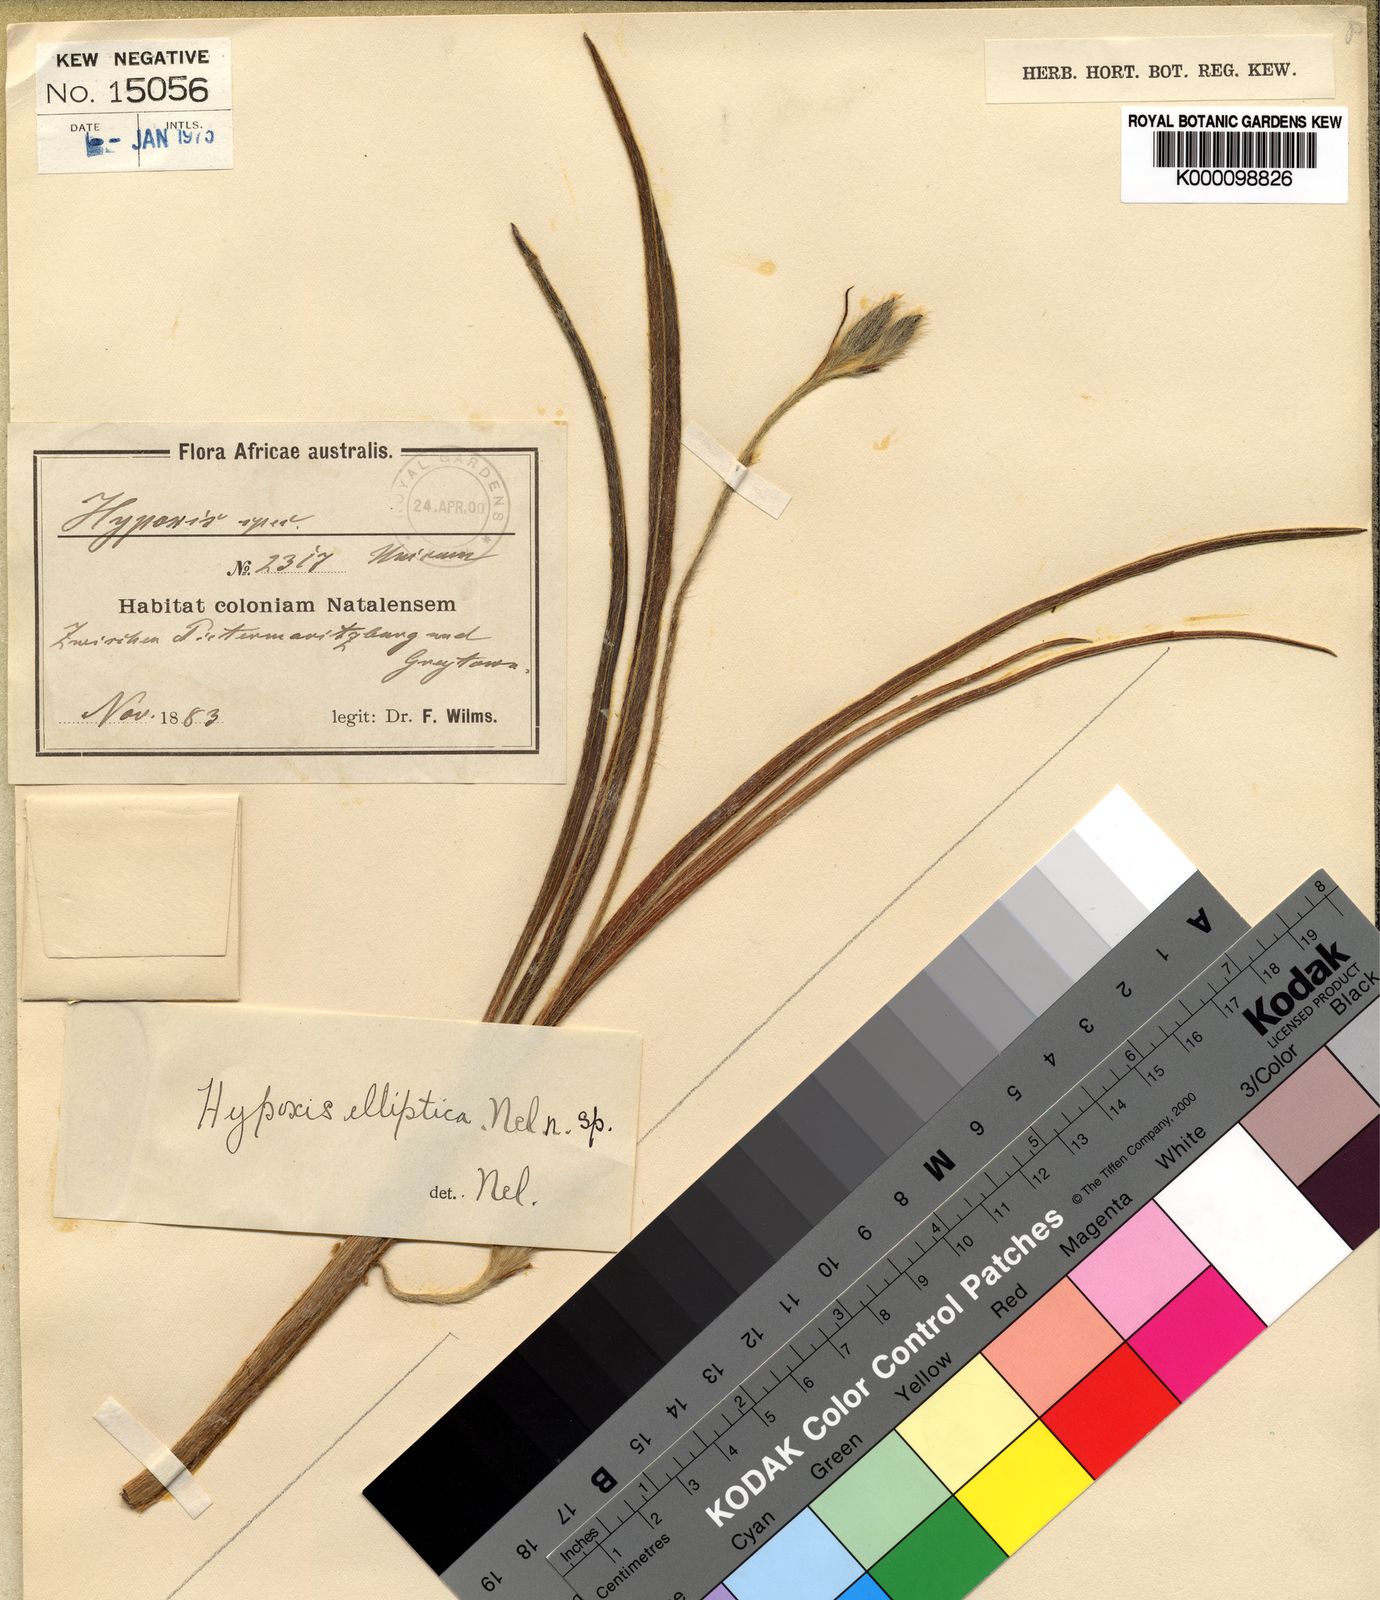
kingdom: Plantae
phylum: Tracheophyta
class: Liliopsida
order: Asparagales
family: Hypoxidaceae
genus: Hypoxis
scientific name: Hypoxis rigidula
